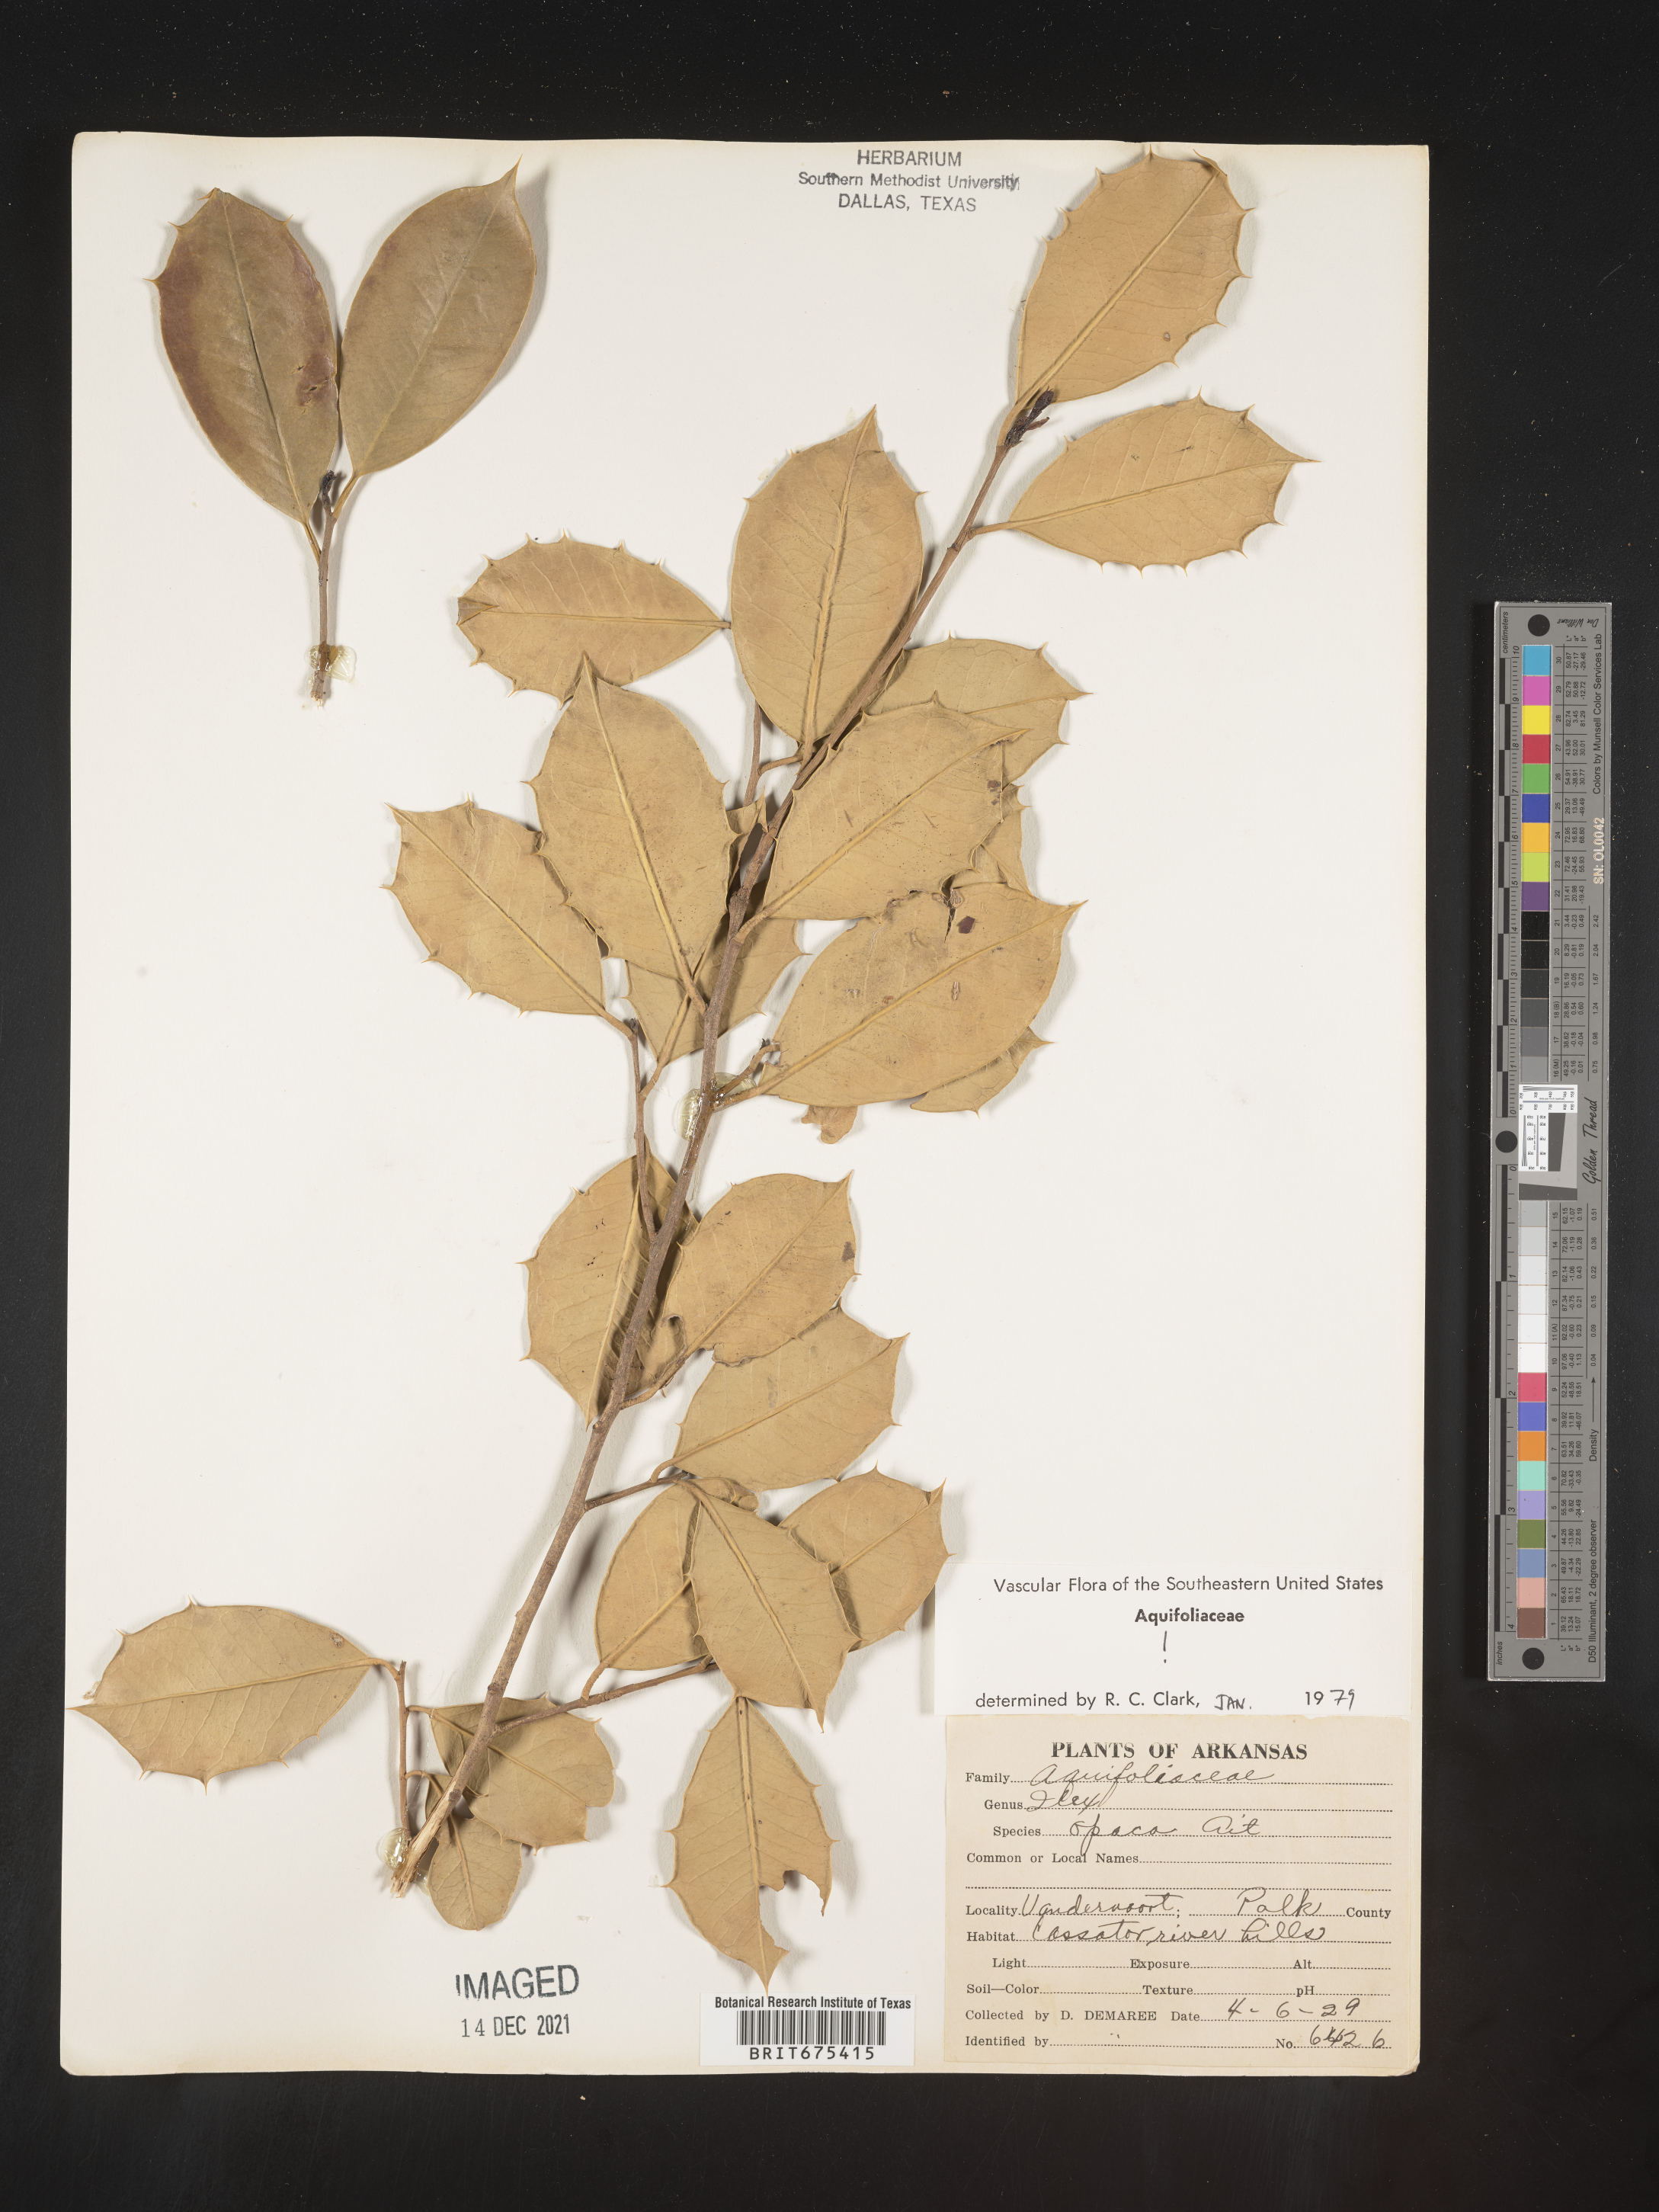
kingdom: Plantae
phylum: Tracheophyta
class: Magnoliopsida
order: Aquifoliales
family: Aquifoliaceae
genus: Ilex
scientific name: Ilex opaca
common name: American holly
